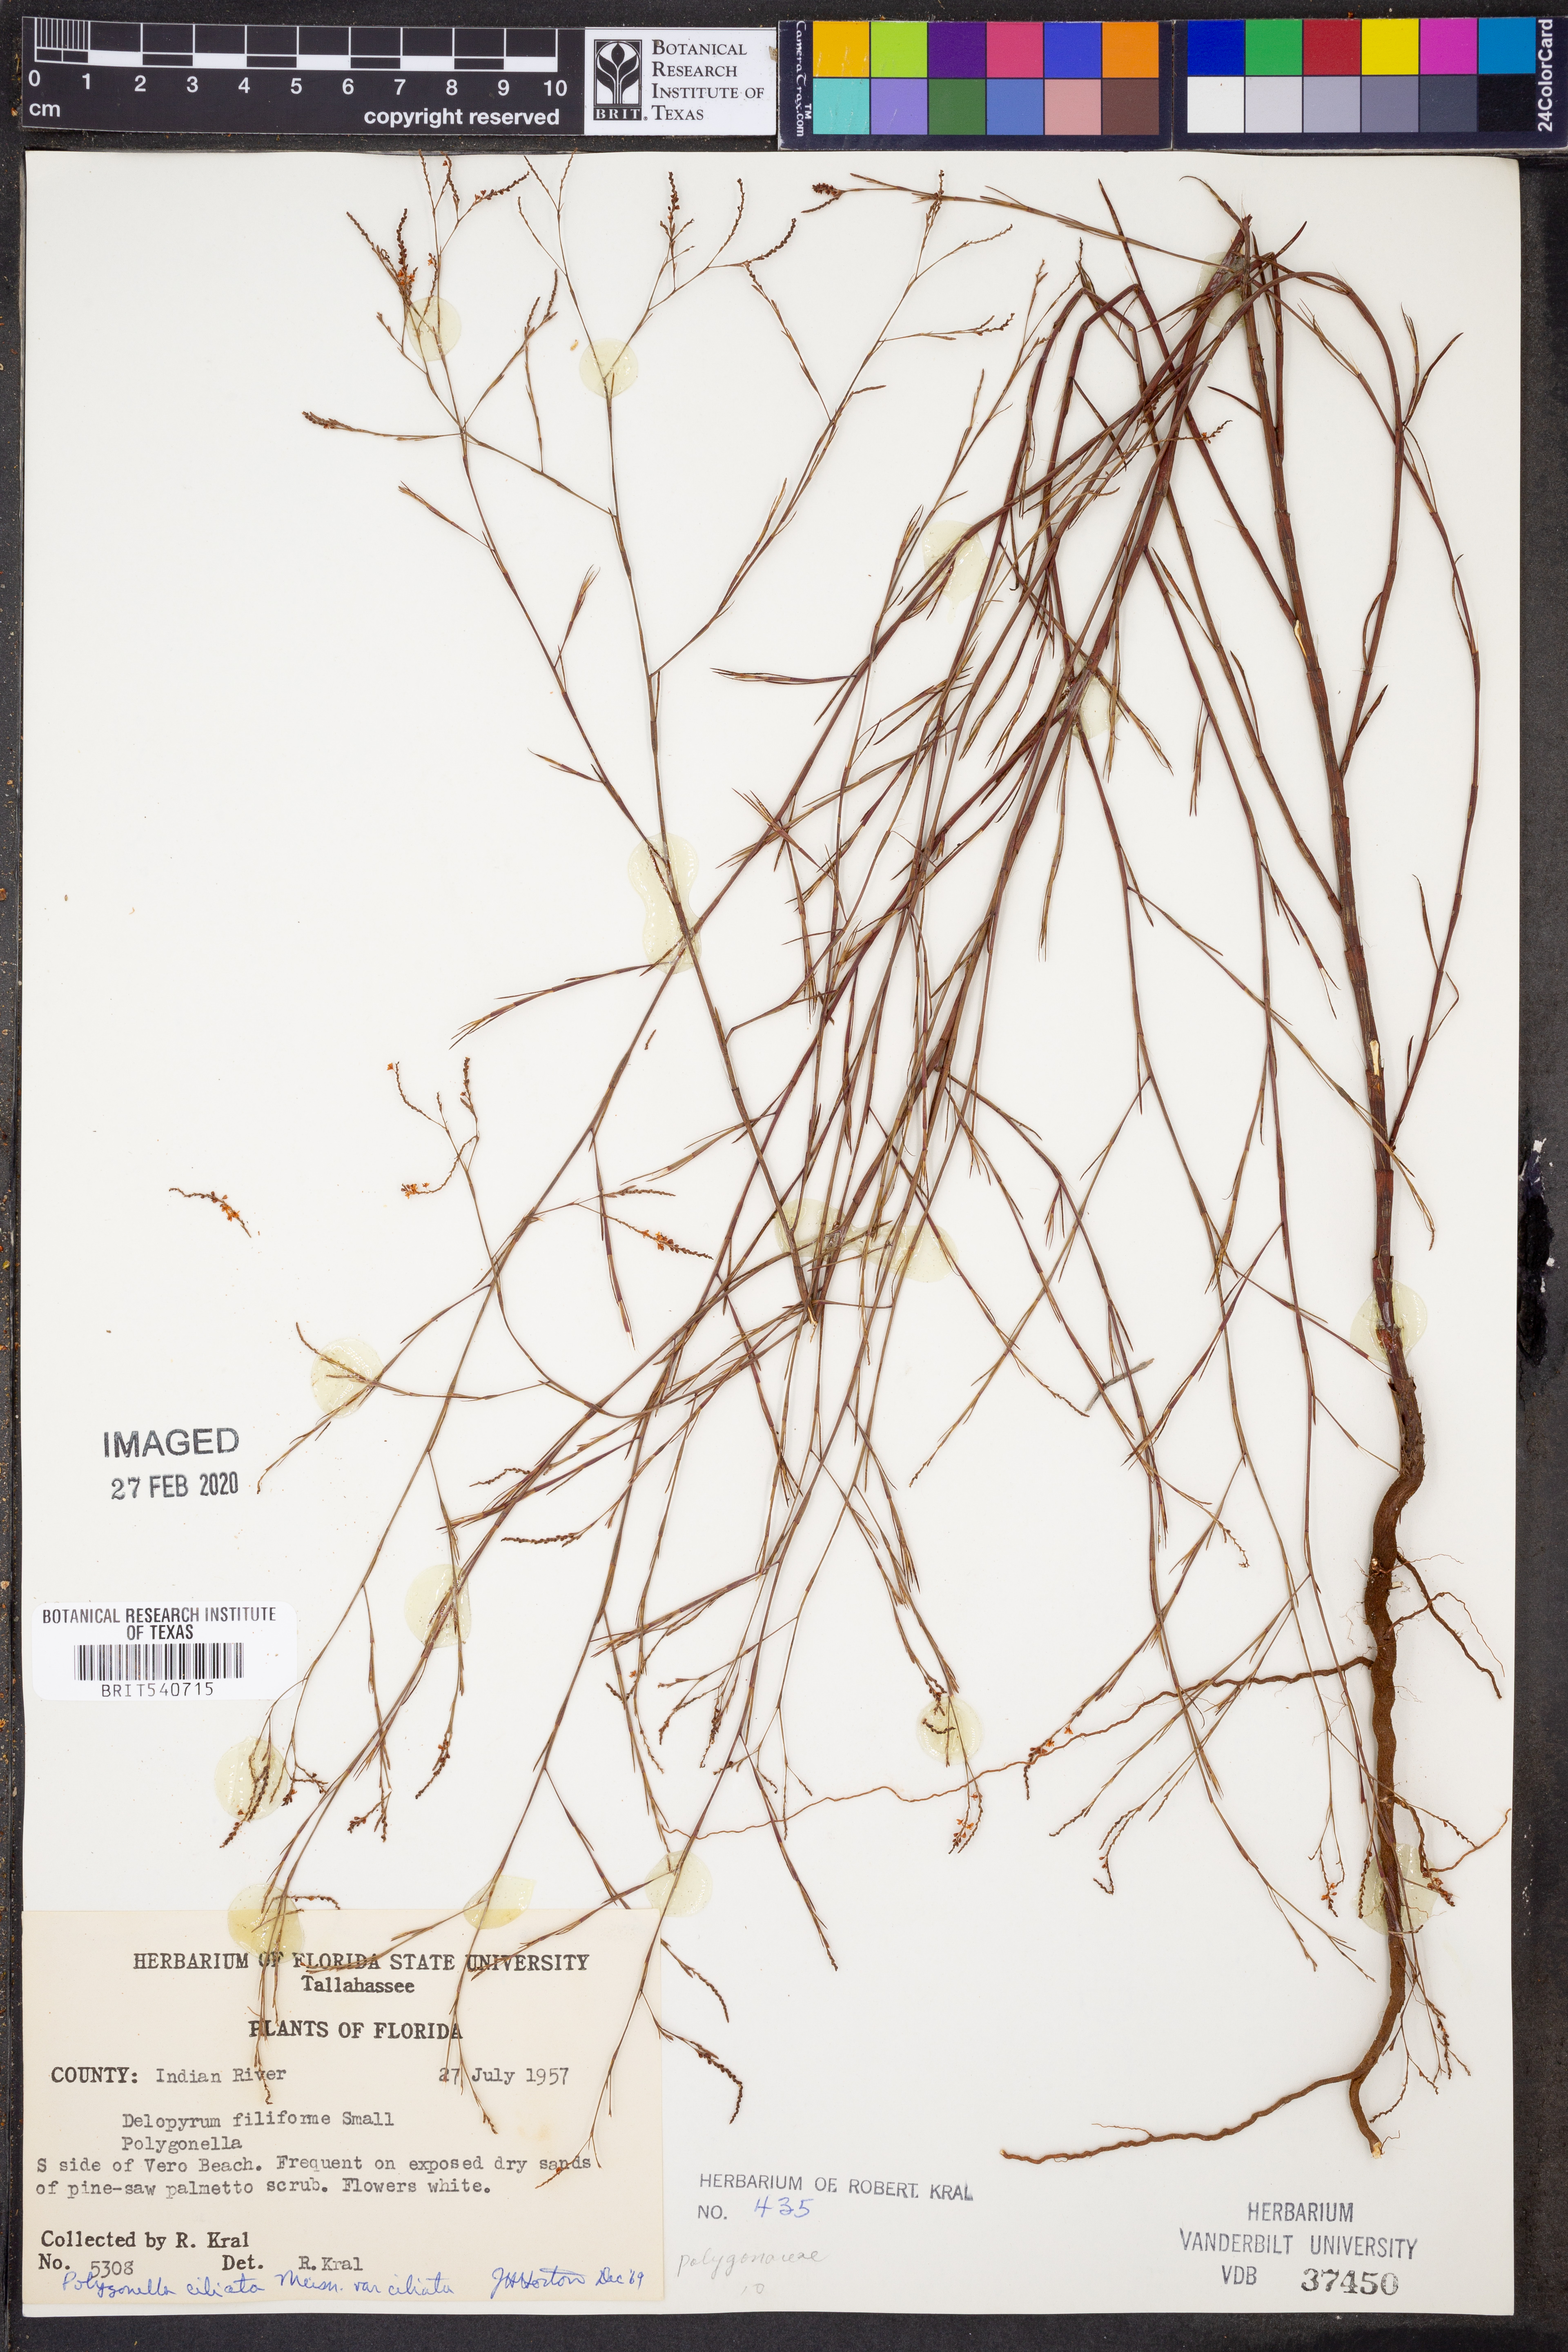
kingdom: Plantae
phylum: Tracheophyta
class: Magnoliopsida
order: Caryophyllales
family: Polygonaceae
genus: Polygonella
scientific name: Polygonella gracilis
